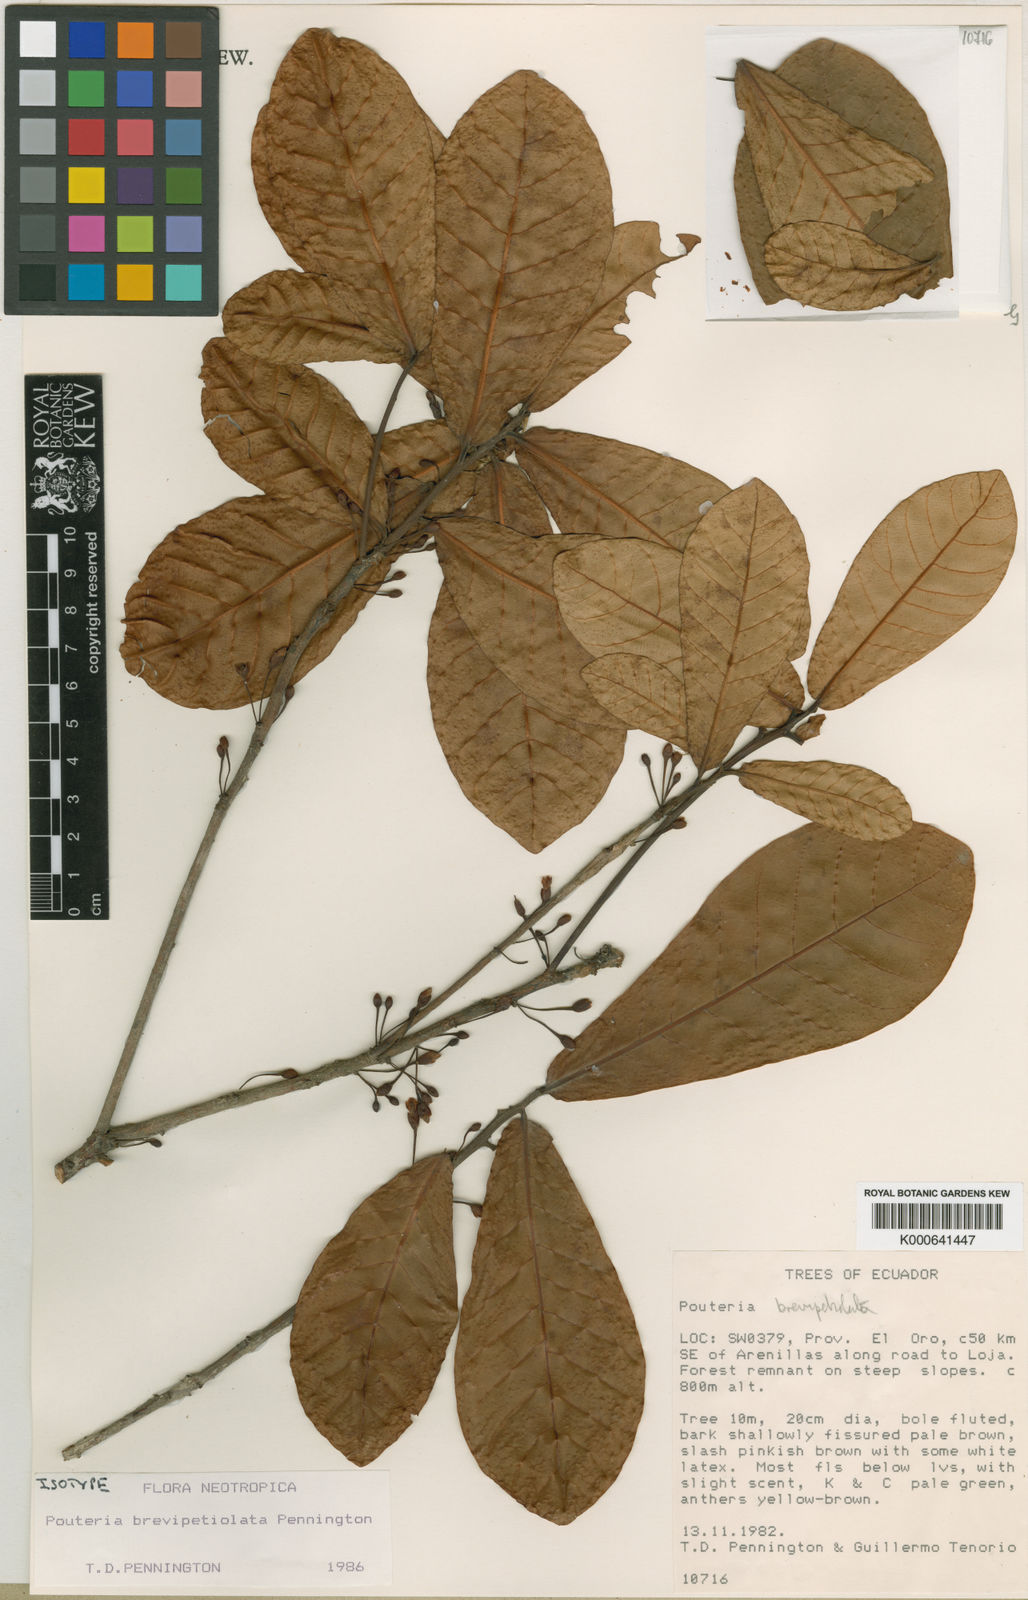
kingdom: Plantae
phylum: Tracheophyta
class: Magnoliopsida
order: Ericales
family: Sapotaceae
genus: Pouteria
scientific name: Pouteria brevipetiolata
